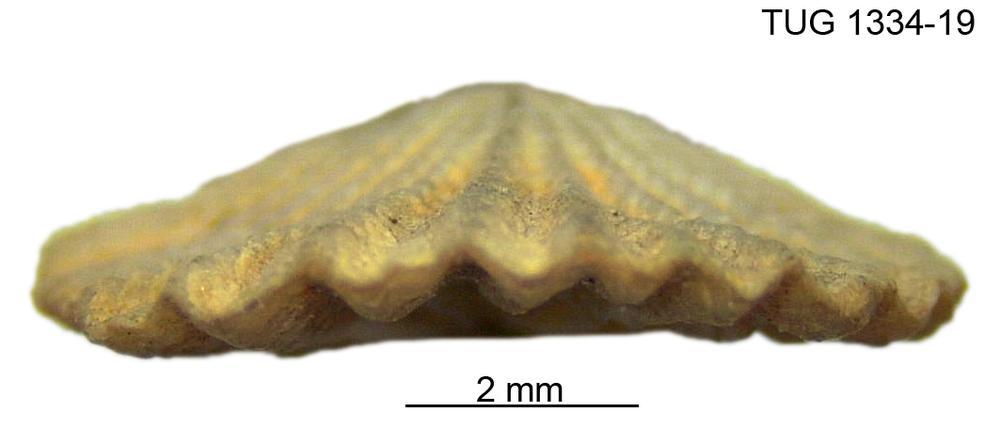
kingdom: Animalia
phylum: Brachiopoda
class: Rhynchonellata
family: Hesperorthidae
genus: Ptychopleurella
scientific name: Ptychopleurella pirguensis
